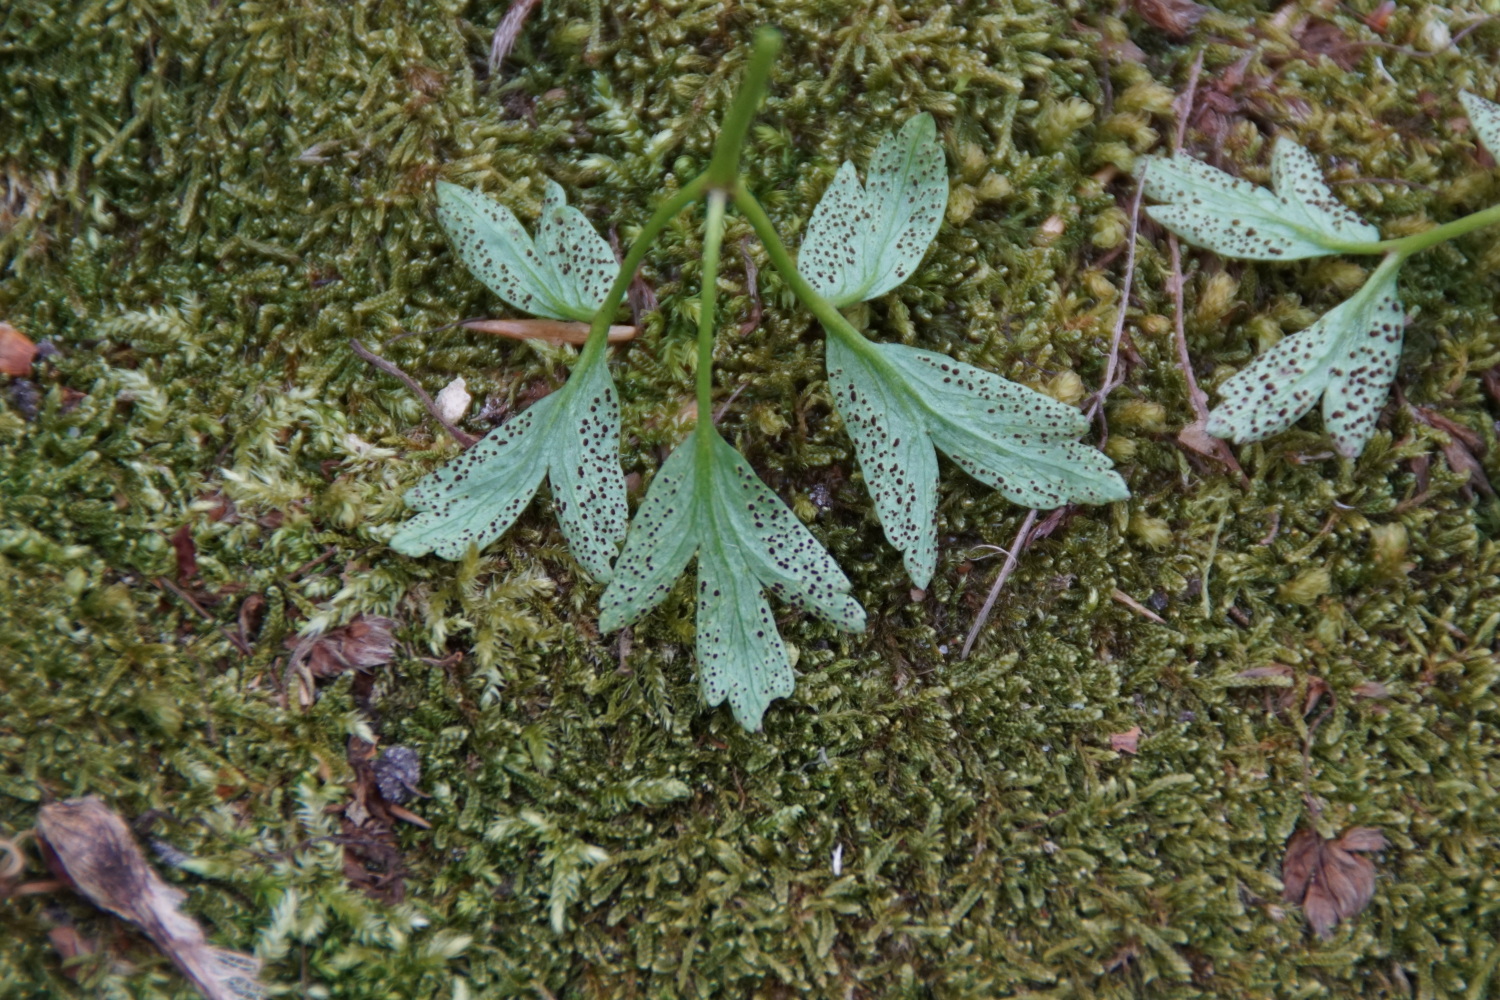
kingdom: Fungi
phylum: Basidiomycota
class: Pucciniomycetes
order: Pucciniales
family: Tranzscheliaceae
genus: Tranzschelia
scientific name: Tranzschelia anemones
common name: anemone-knæksporerust
